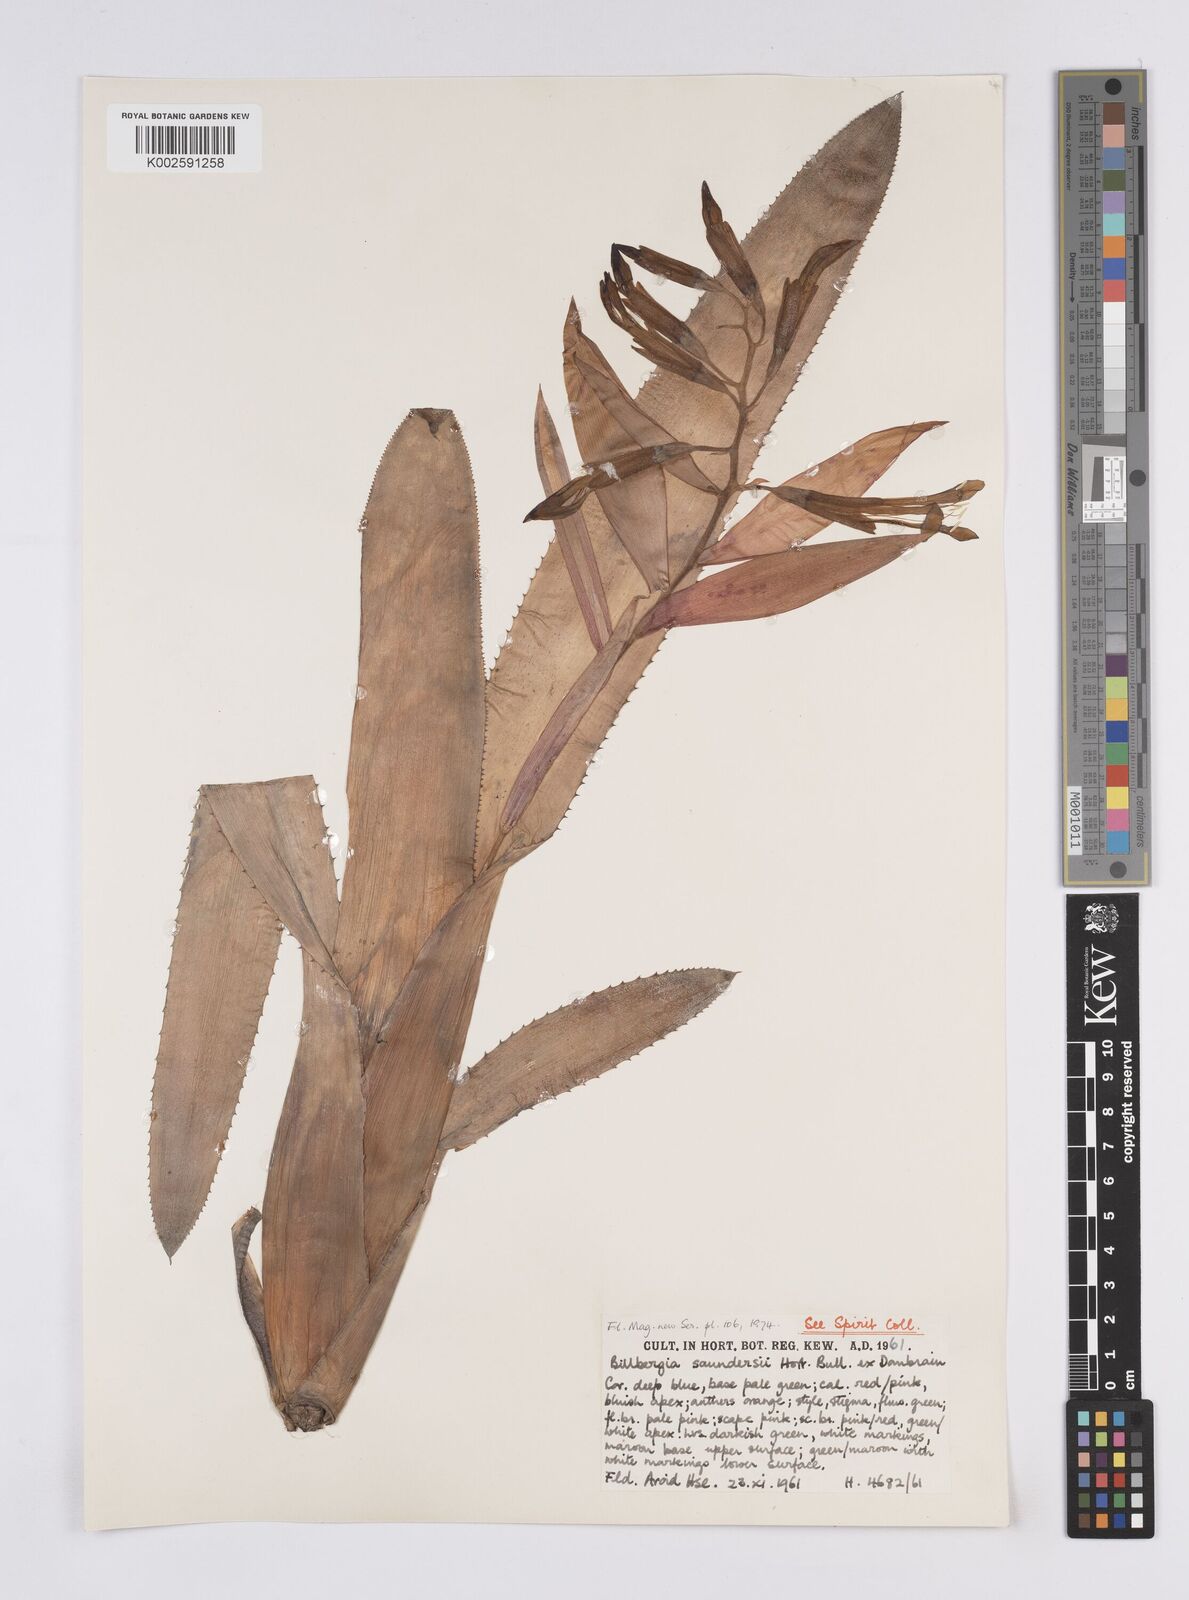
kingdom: Plantae
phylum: Tracheophyta
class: Liliopsida
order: Poales
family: Bromeliaceae
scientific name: Bromeliaceae
